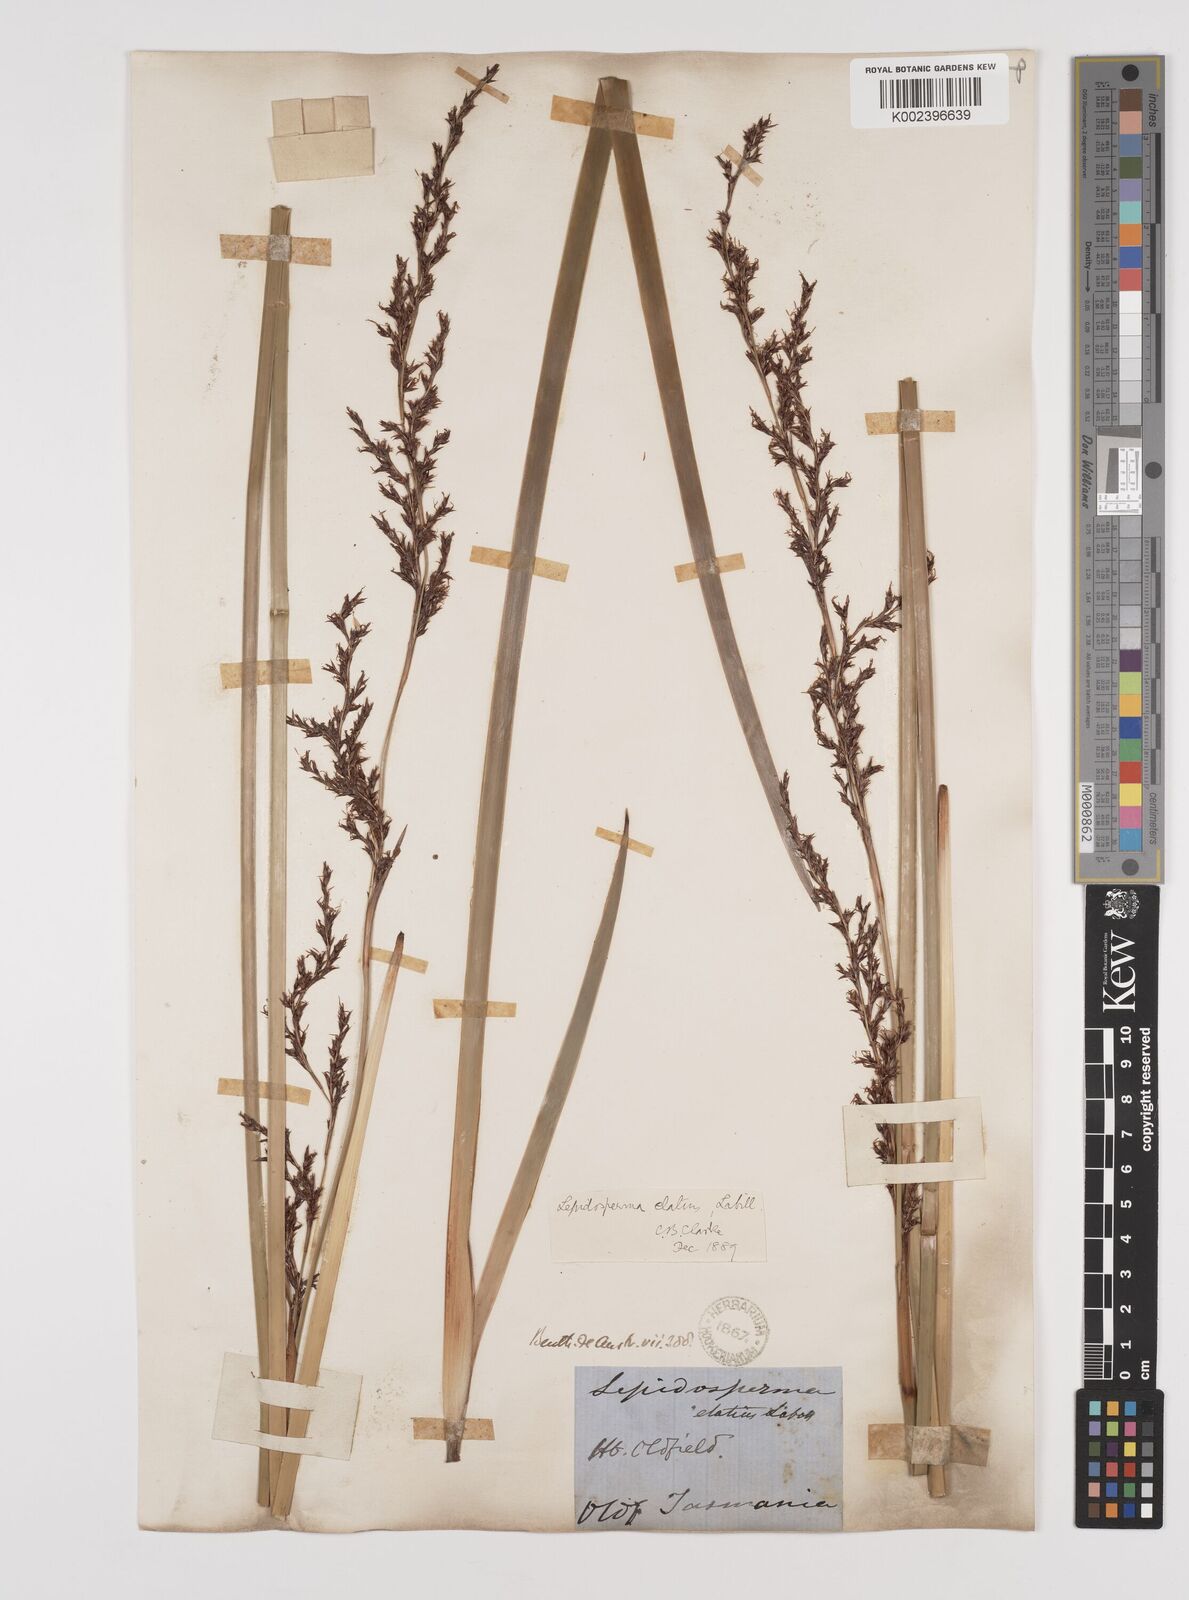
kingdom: Plantae
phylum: Tracheophyta
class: Liliopsida
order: Poales
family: Cyperaceae
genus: Lepidosperma
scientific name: Lepidosperma elatius
